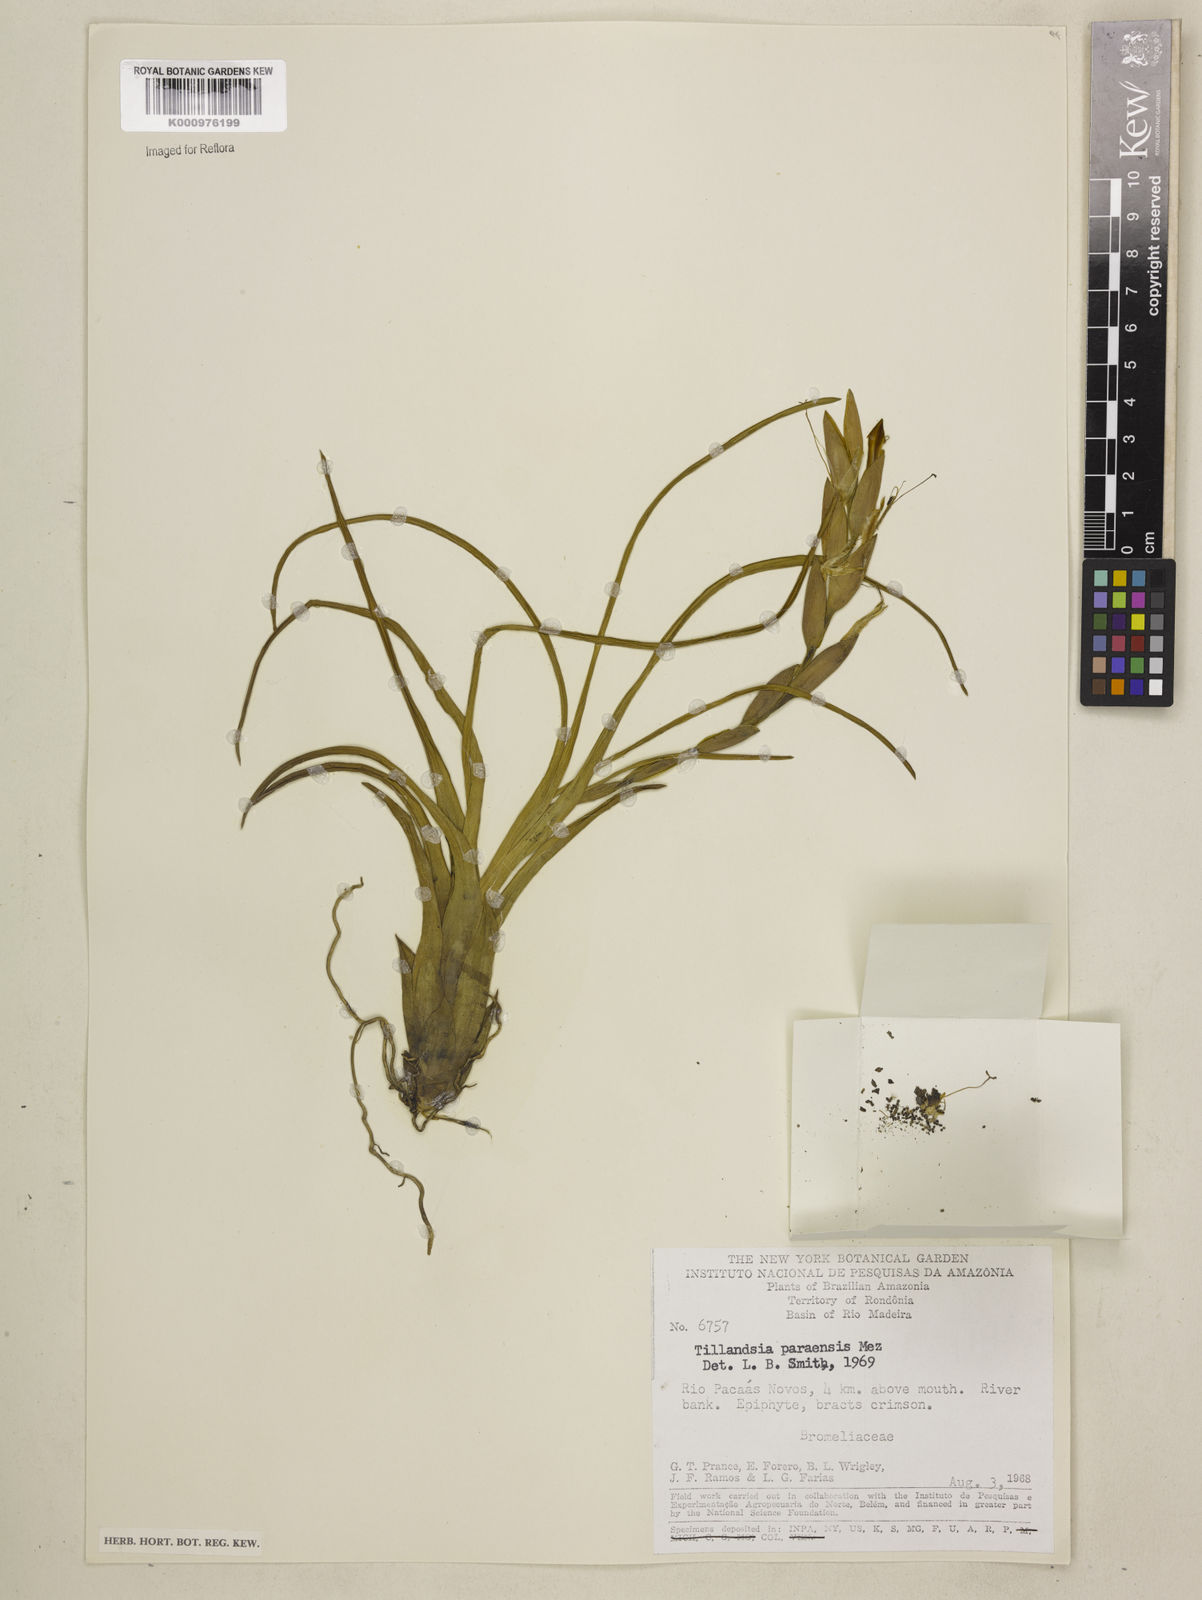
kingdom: Plantae
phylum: Tracheophyta
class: Liliopsida
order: Poales
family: Bromeliaceae
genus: Tillandsia
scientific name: Tillandsia paraensis
